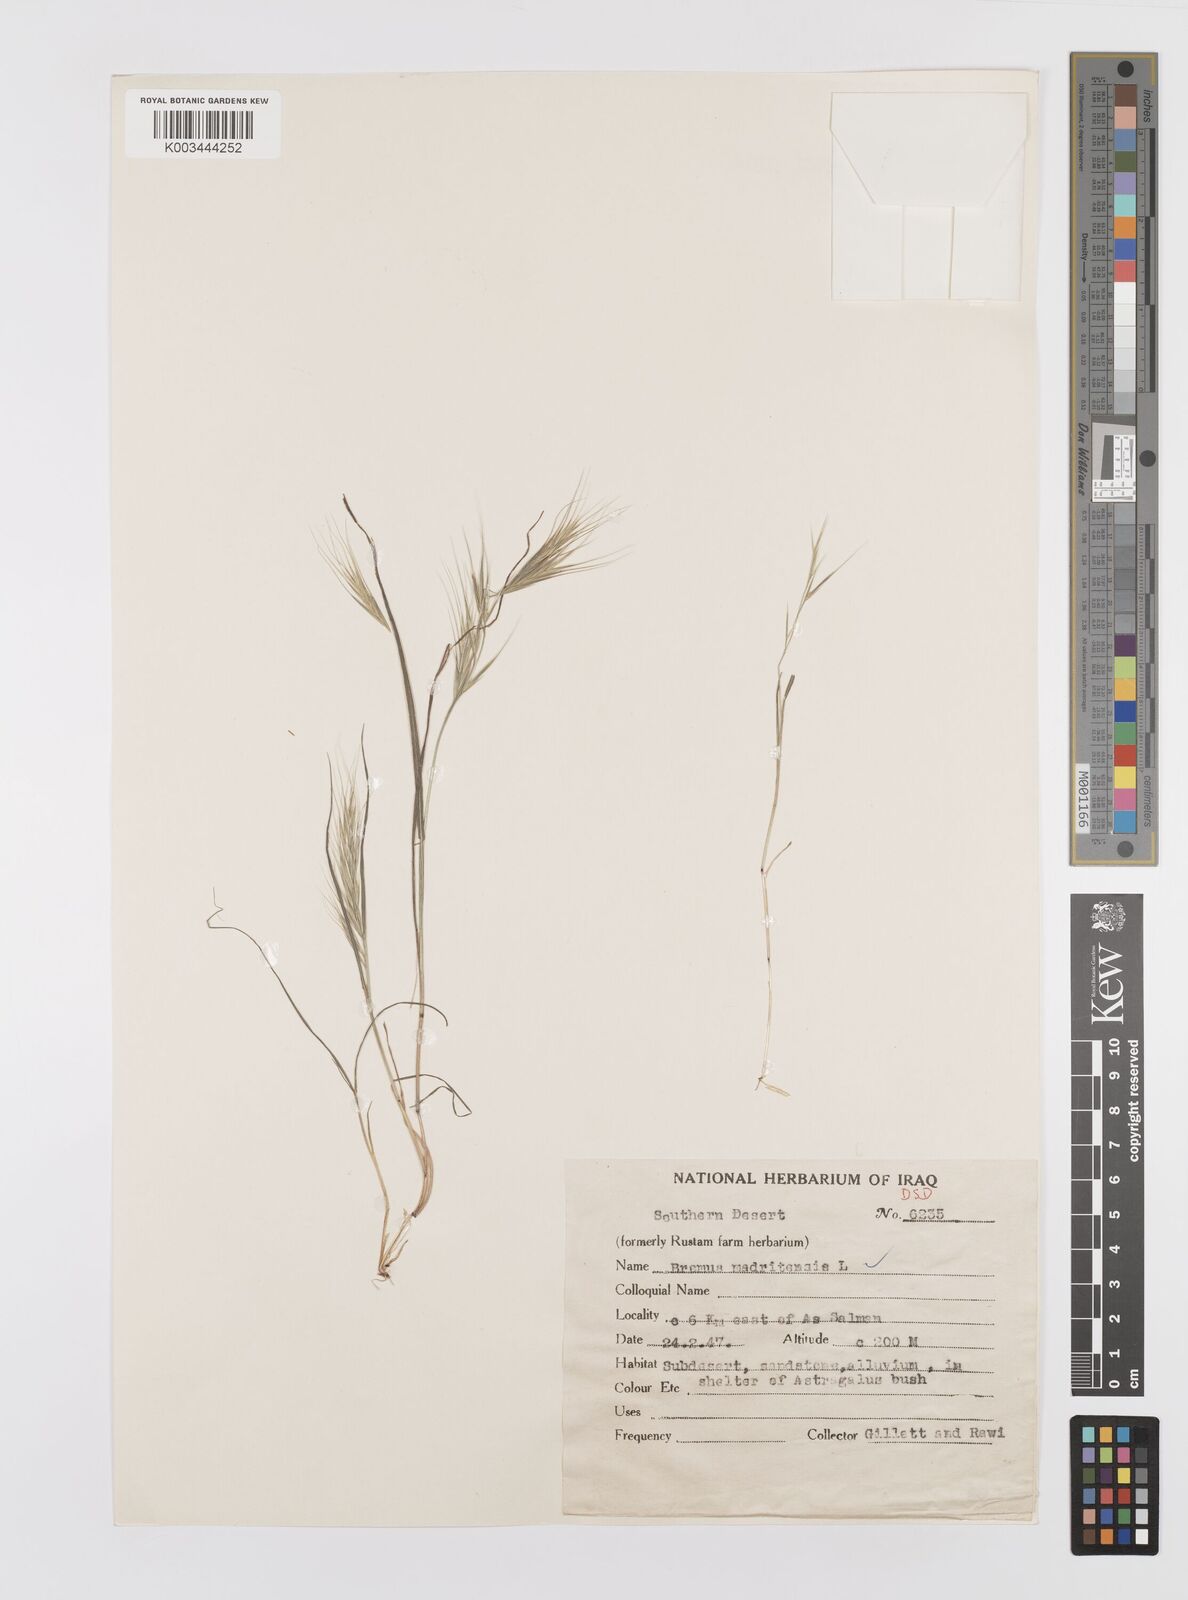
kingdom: Plantae
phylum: Tracheophyta
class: Liliopsida
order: Poales
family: Poaceae
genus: Bromus
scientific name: Bromus madritensis
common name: Compact brome
